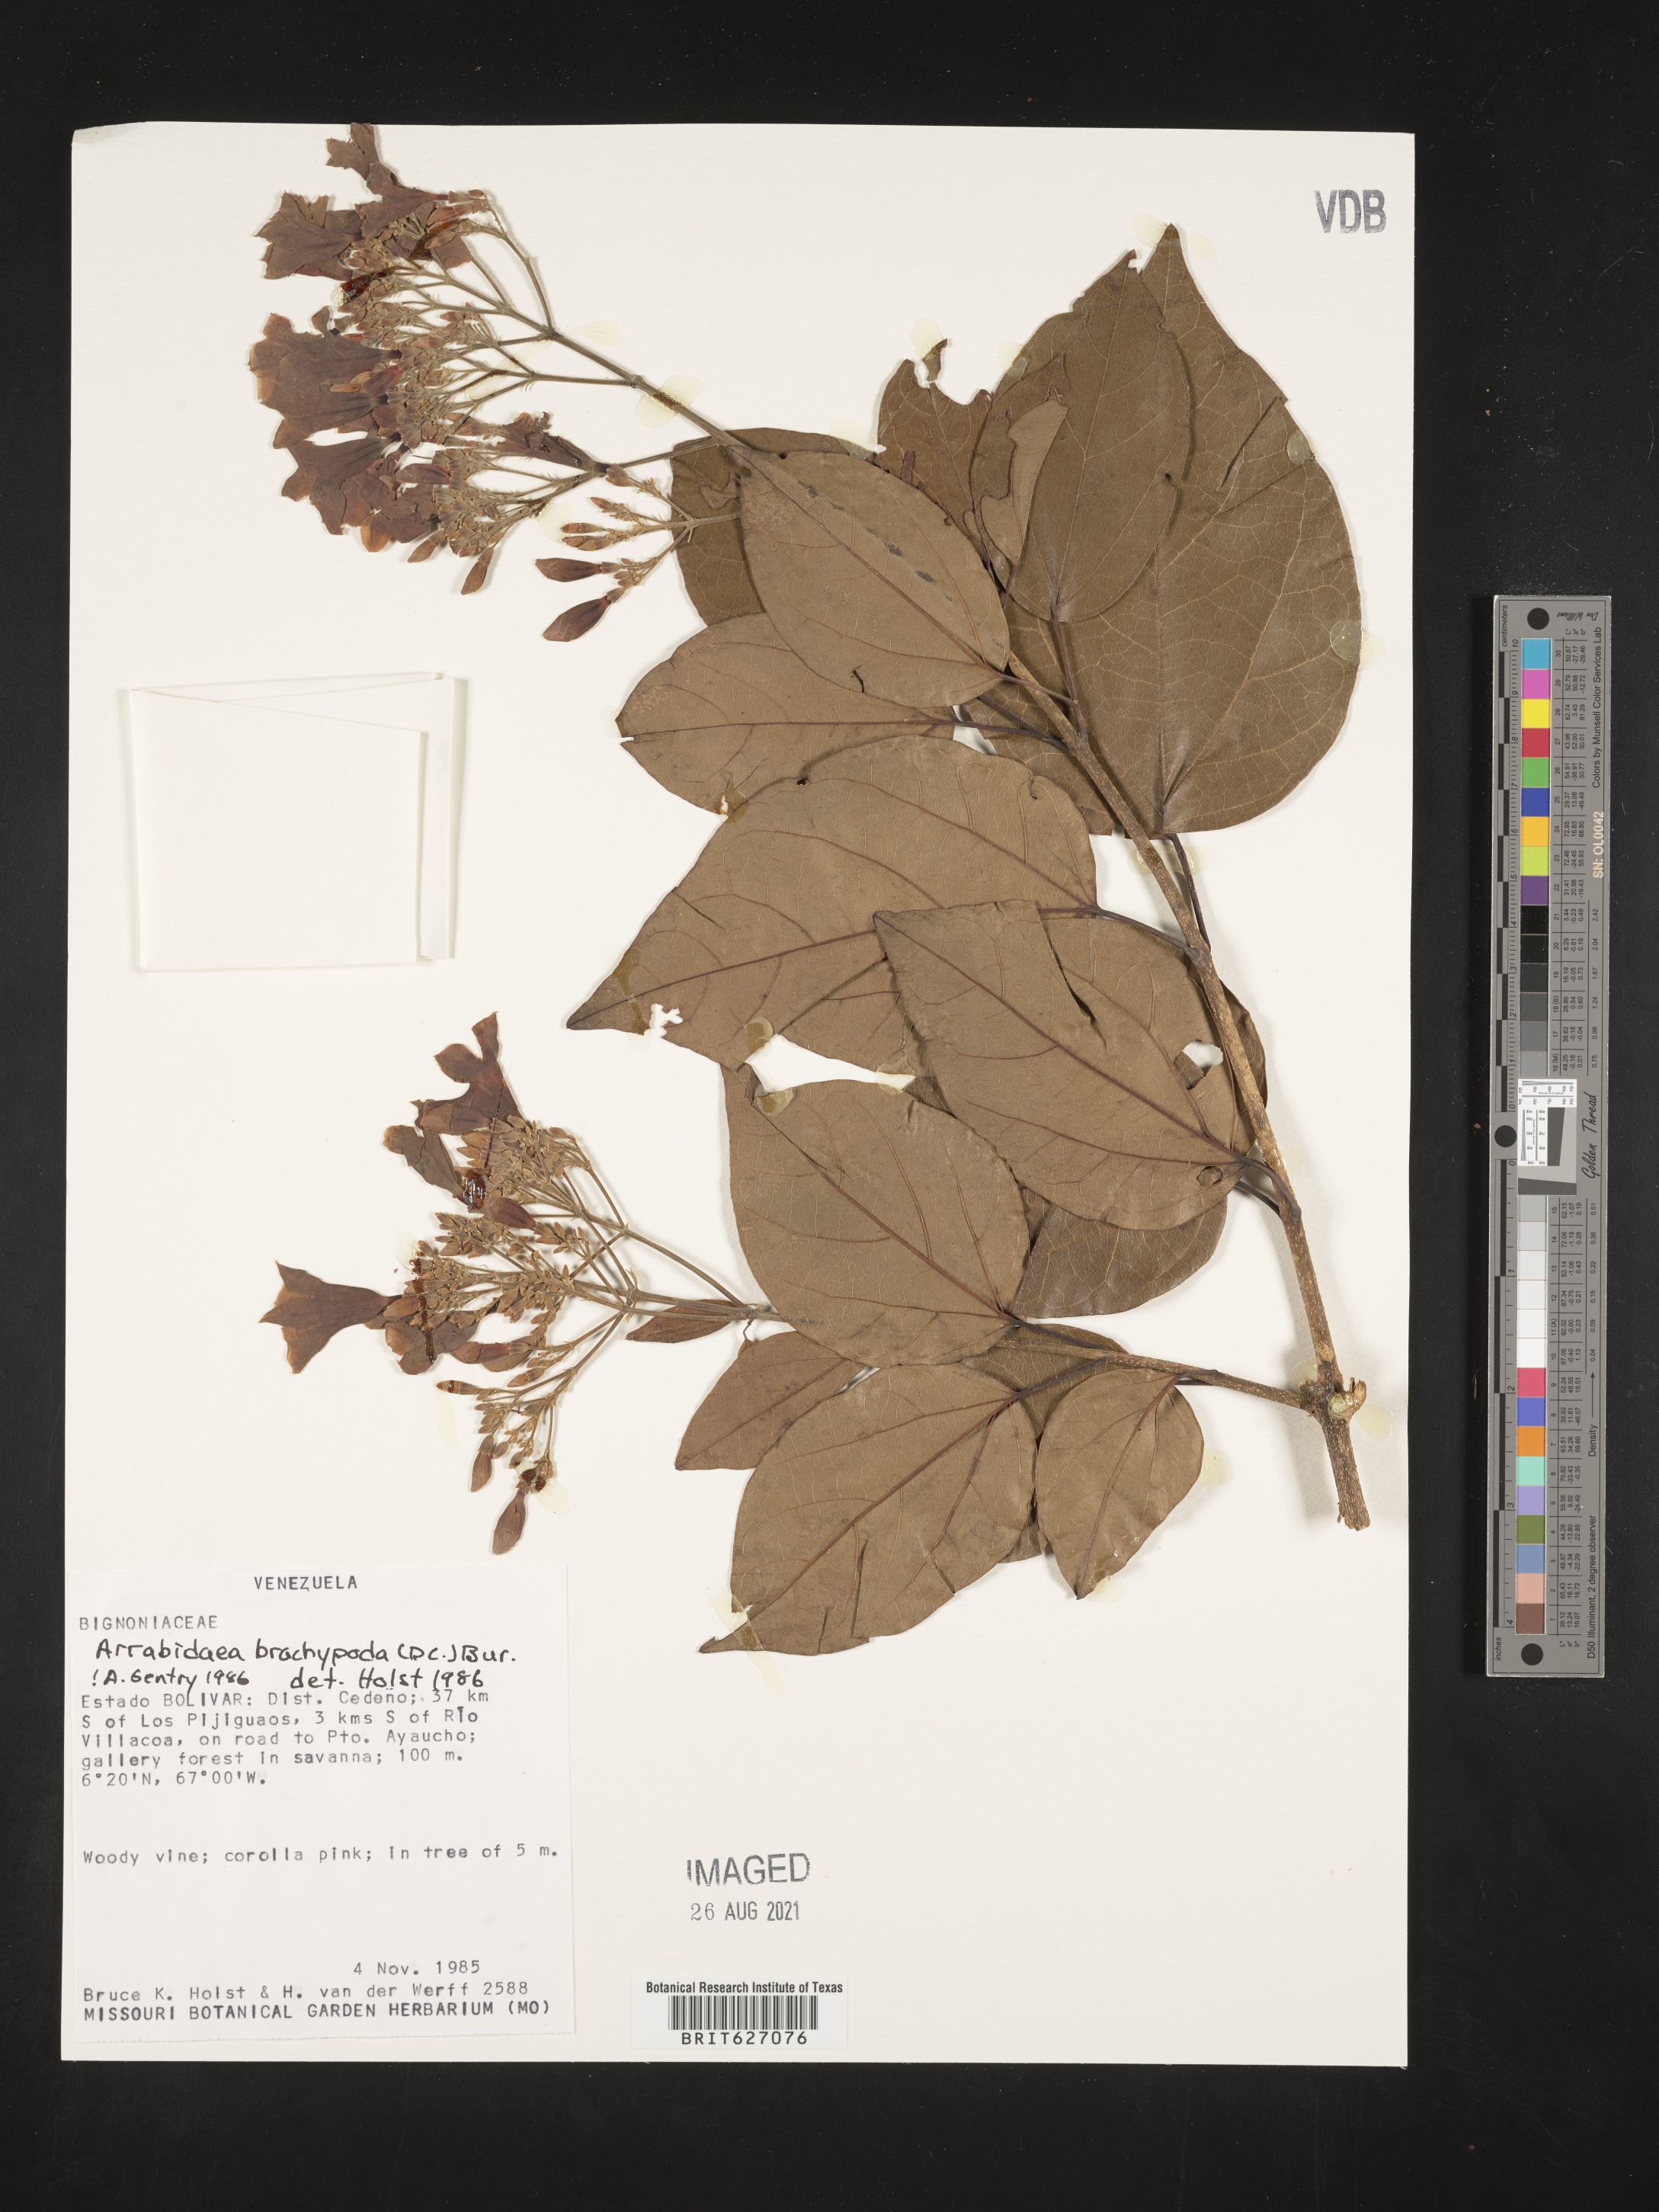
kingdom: Plantae
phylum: Tracheophyta
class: Magnoliopsida
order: Lamiales
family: Bignoniaceae
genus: Fridericia
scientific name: Fridericia platyphylla
